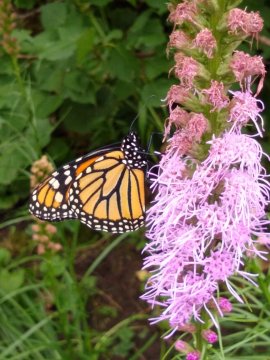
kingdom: Animalia
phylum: Arthropoda
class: Insecta
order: Lepidoptera
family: Nymphalidae
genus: Danaus
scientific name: Danaus plexippus
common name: Monarch
